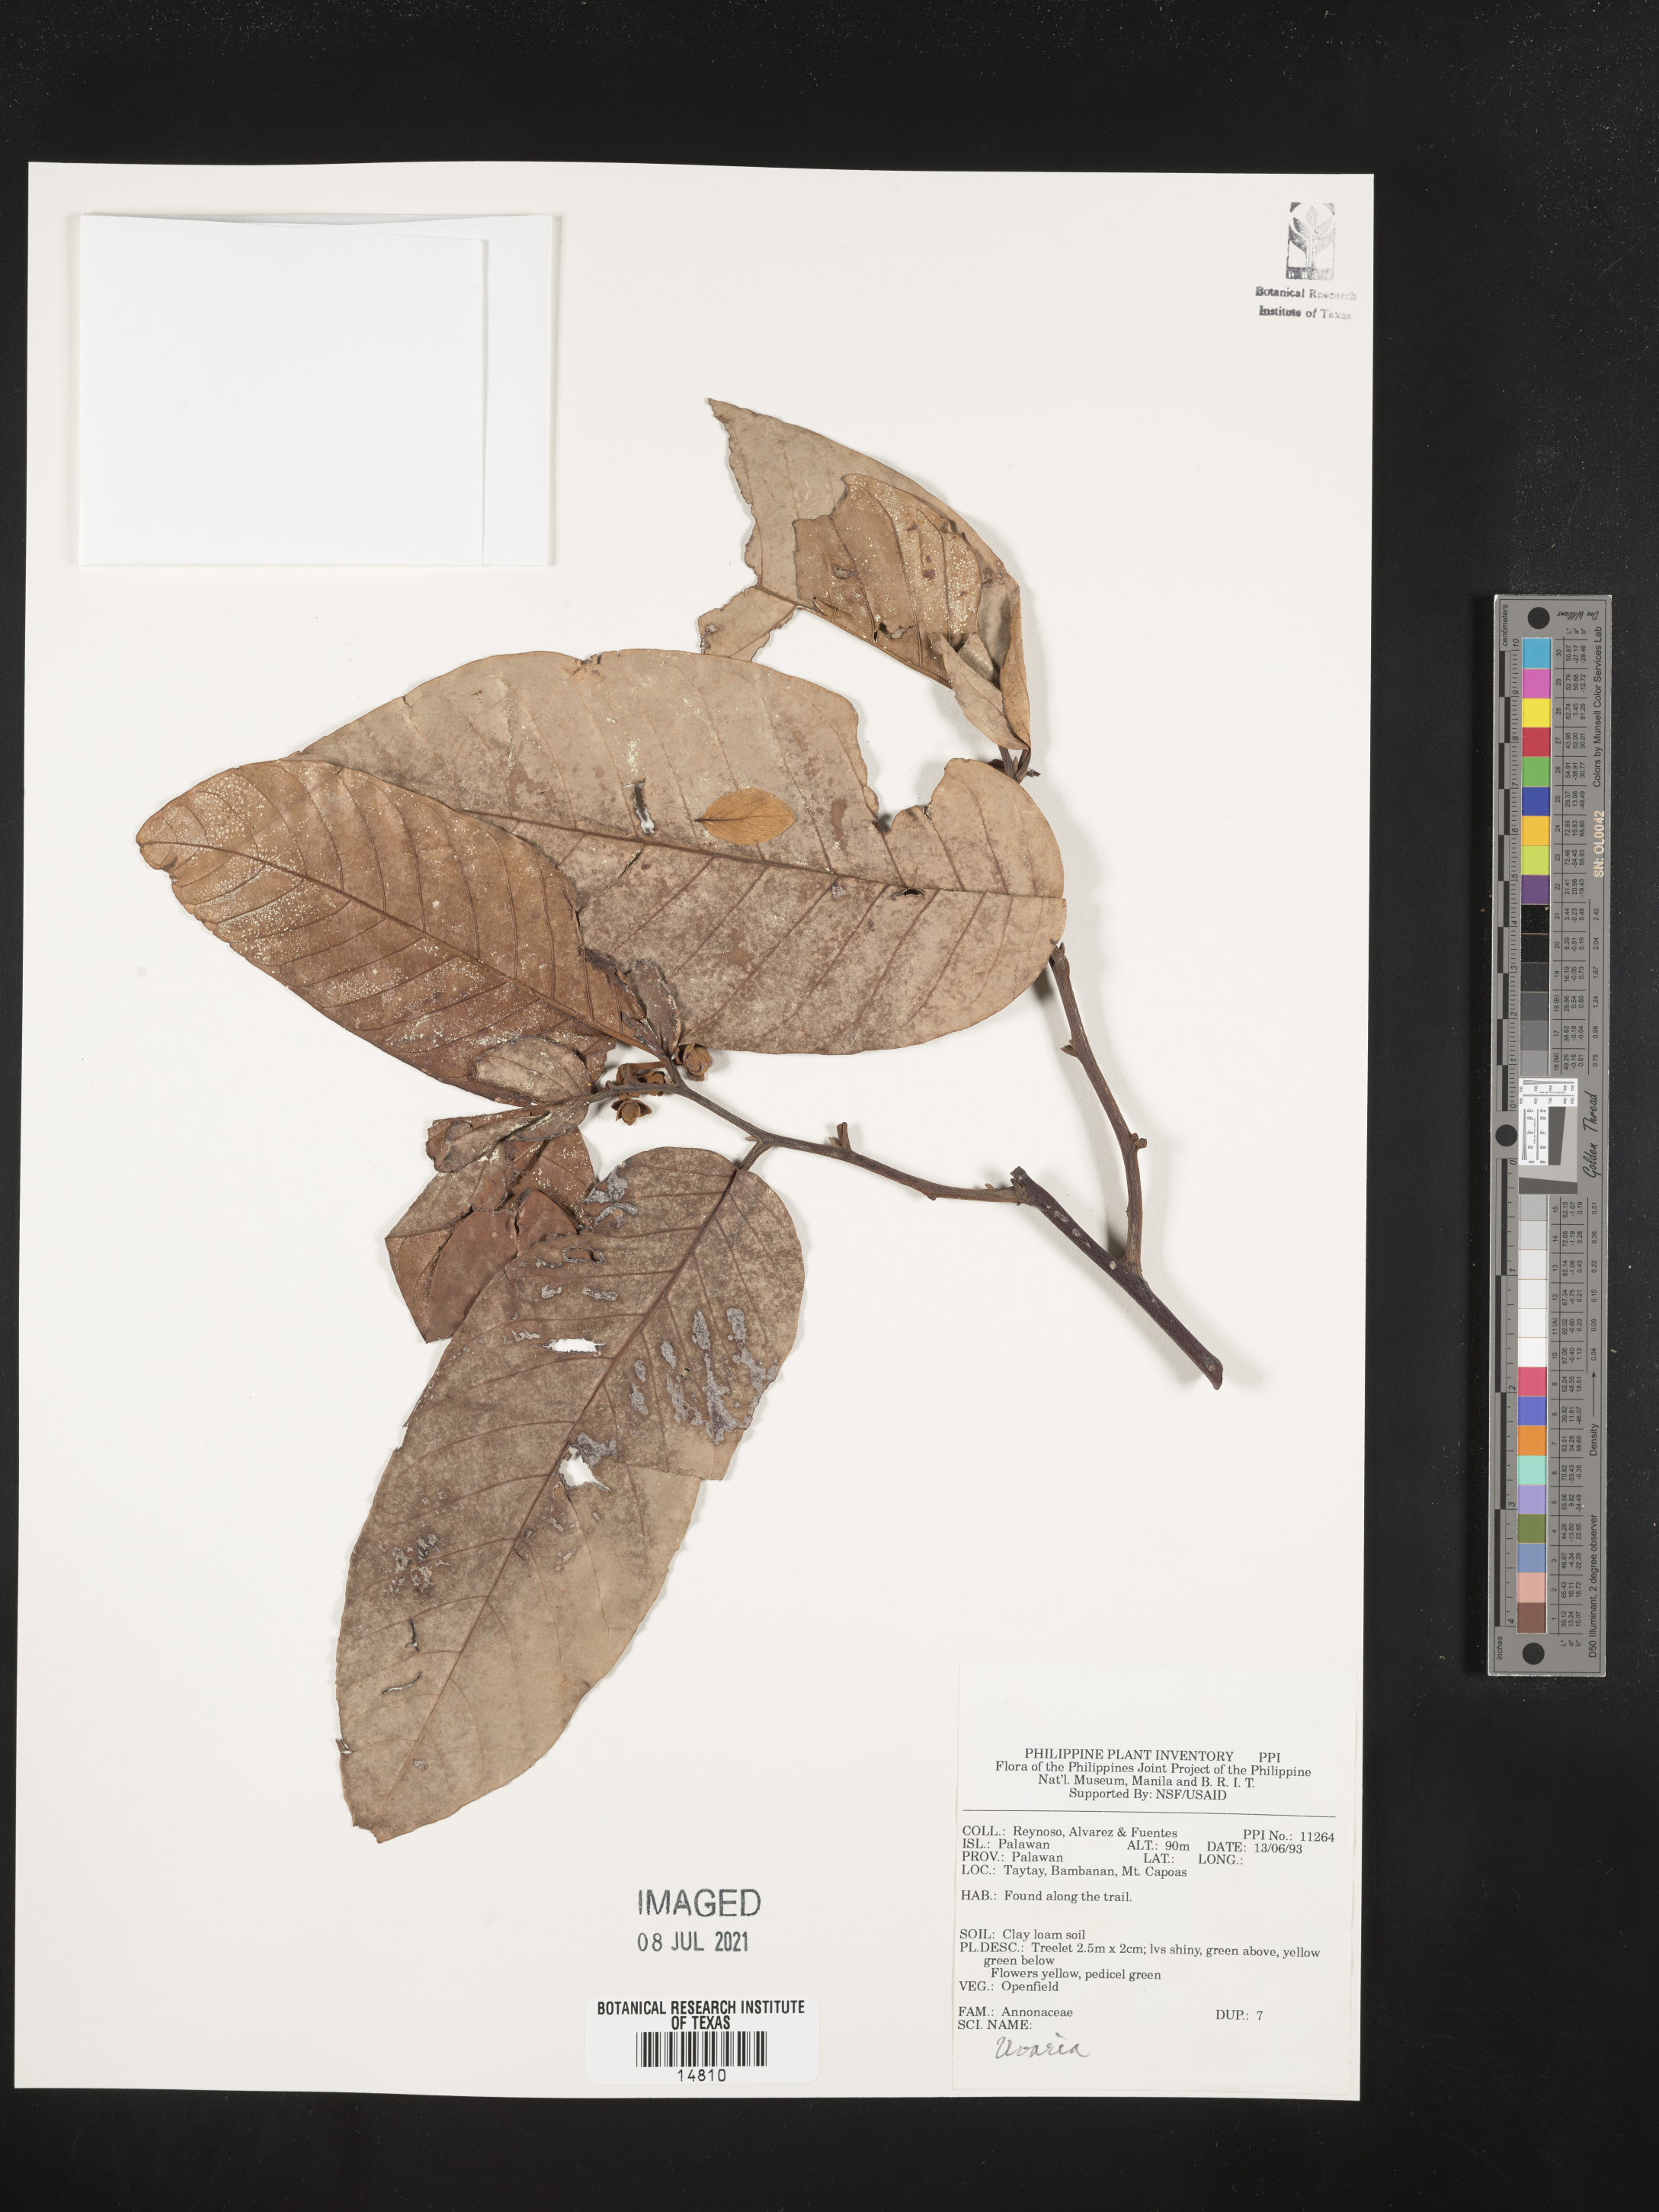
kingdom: Plantae
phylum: Tracheophyta
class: Magnoliopsida
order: Magnoliales
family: Annonaceae
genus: Uvaria
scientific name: Uvaria
